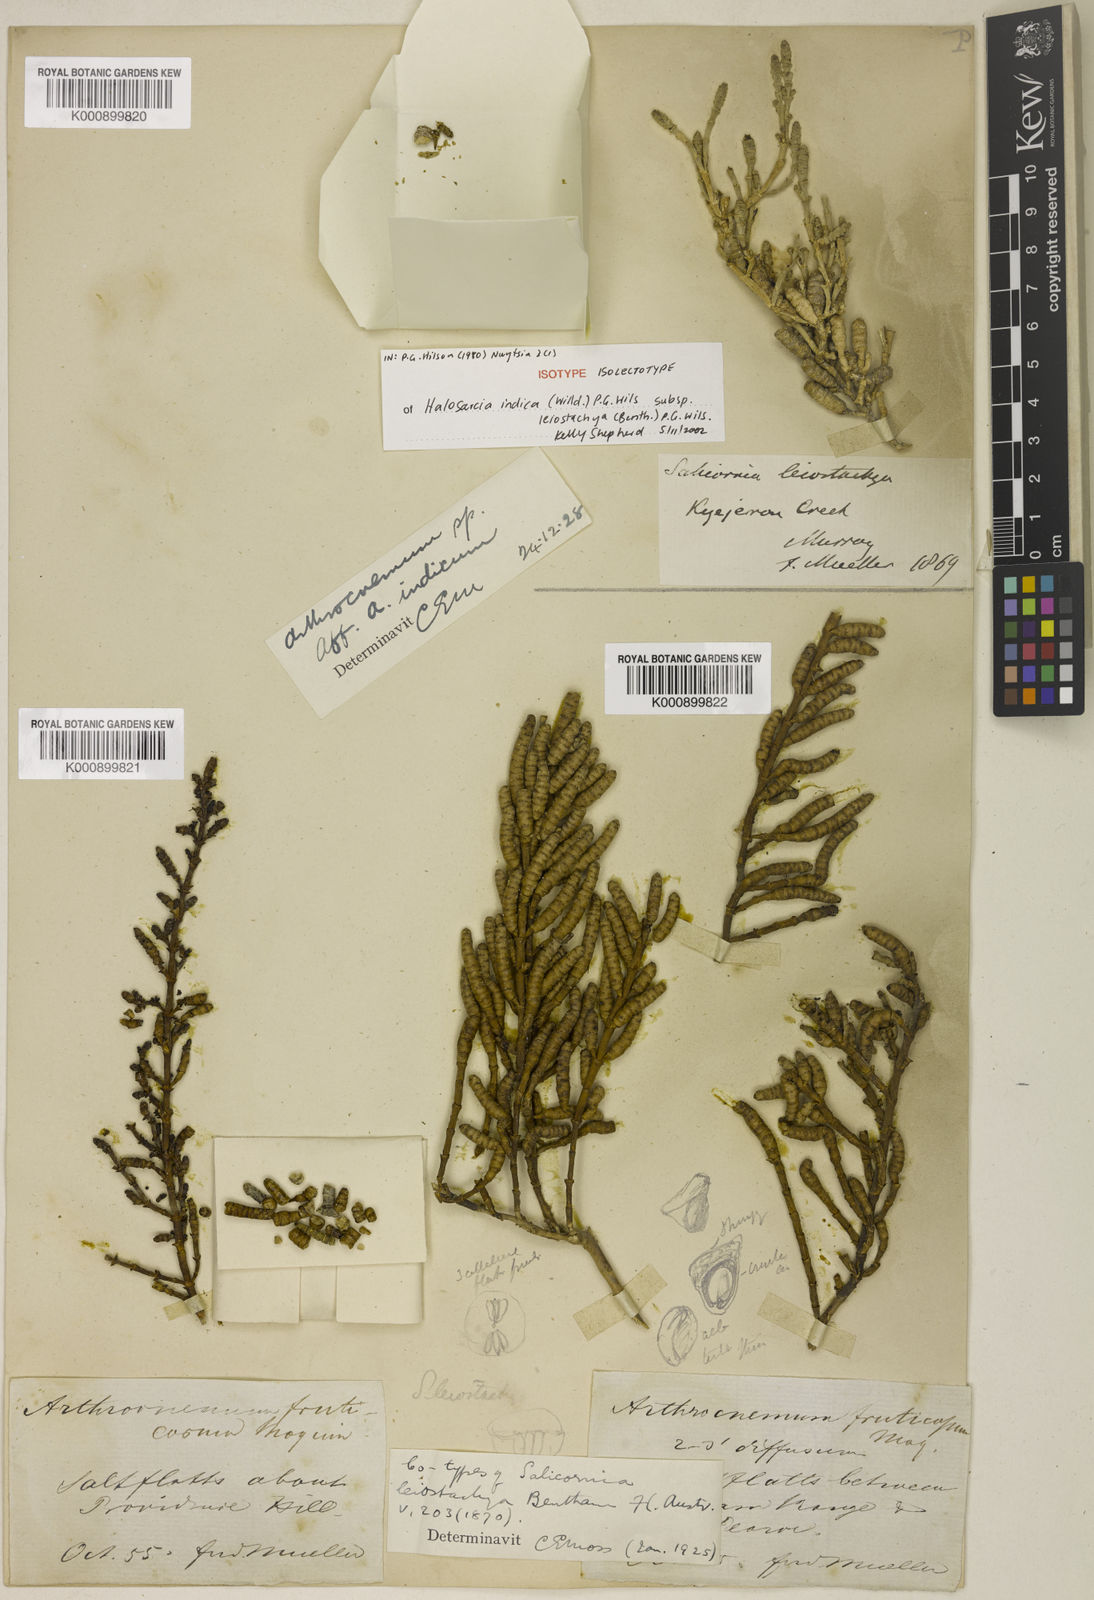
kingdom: Plantae
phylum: Tracheophyta
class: Magnoliopsida
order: Caryophyllales
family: Amaranthaceae
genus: Tecticornia
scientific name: Tecticornia indica
